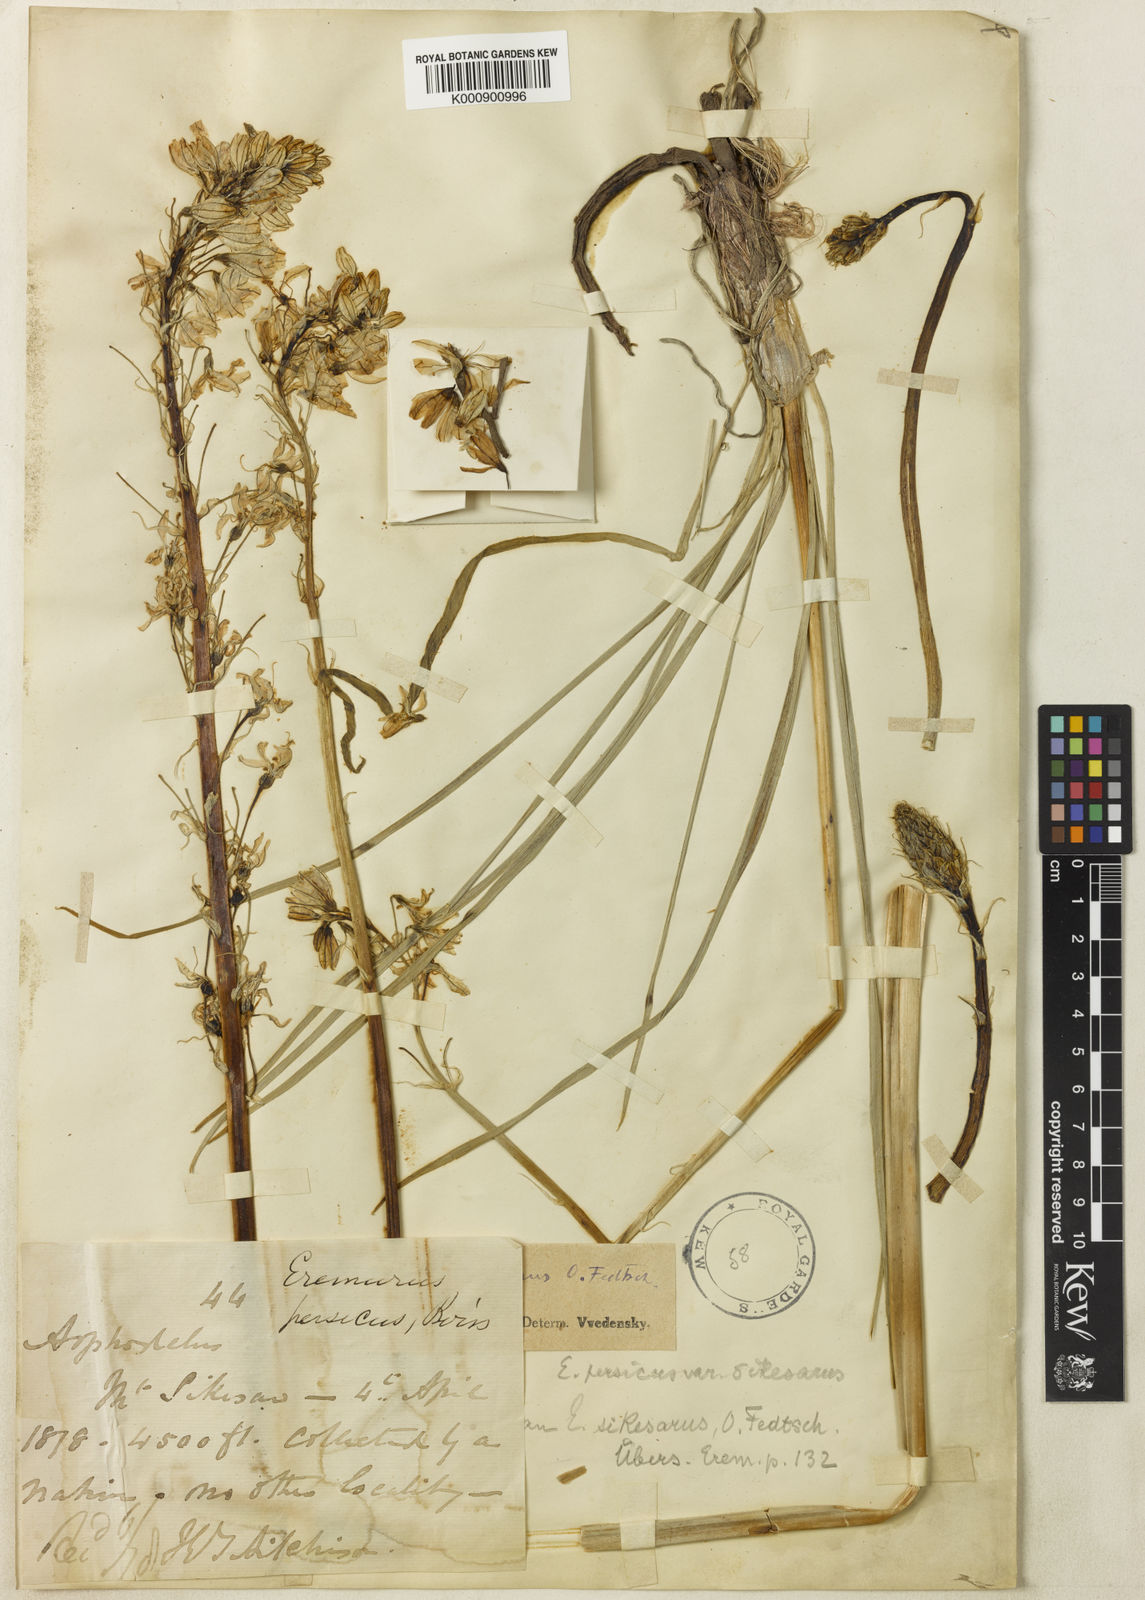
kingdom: Plantae
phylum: Tracheophyta
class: Liliopsida
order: Asparagales
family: Asphodelaceae
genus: Eremurus
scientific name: Eremurus persicus
